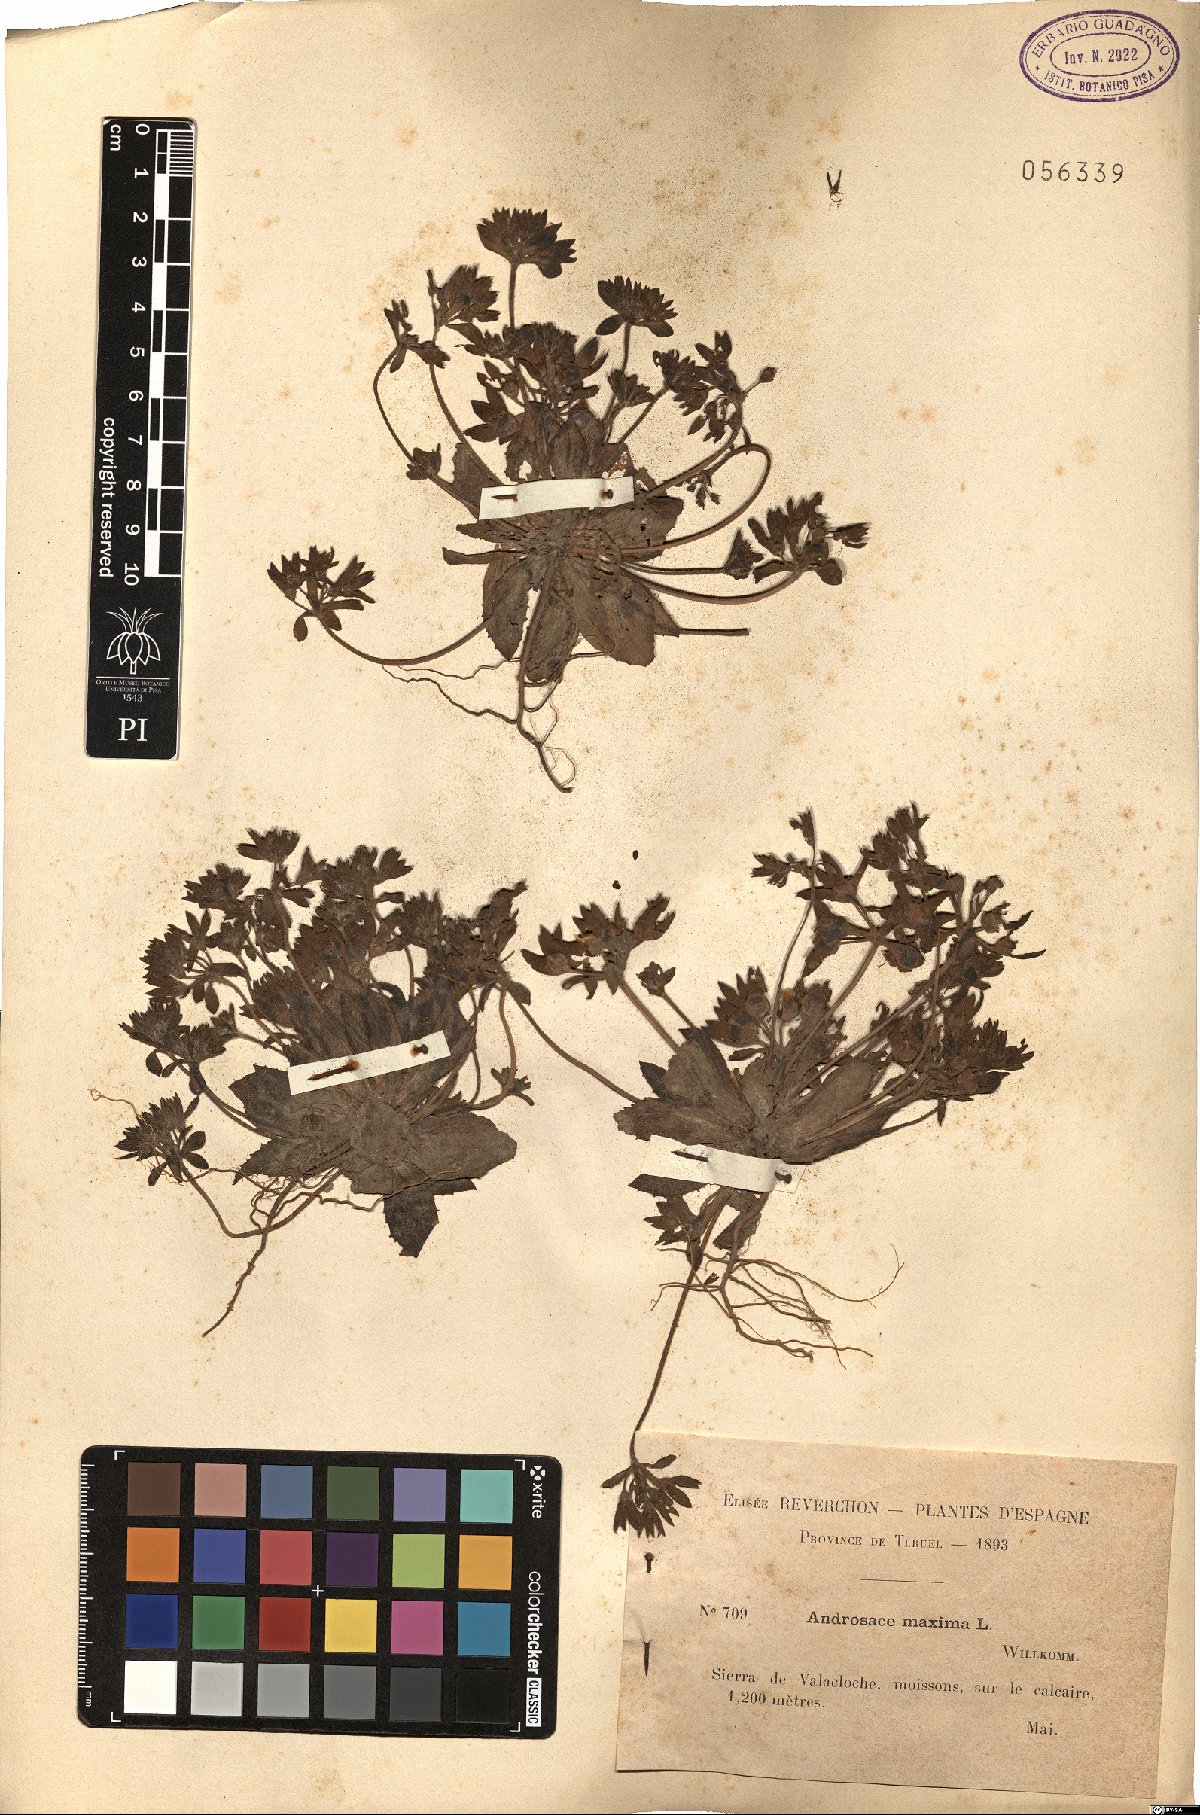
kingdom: Plantae
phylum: Tracheophyta
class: Magnoliopsida
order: Ericales
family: Primulaceae
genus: Androsace
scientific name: Androsace maxima
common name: Annual androsace
